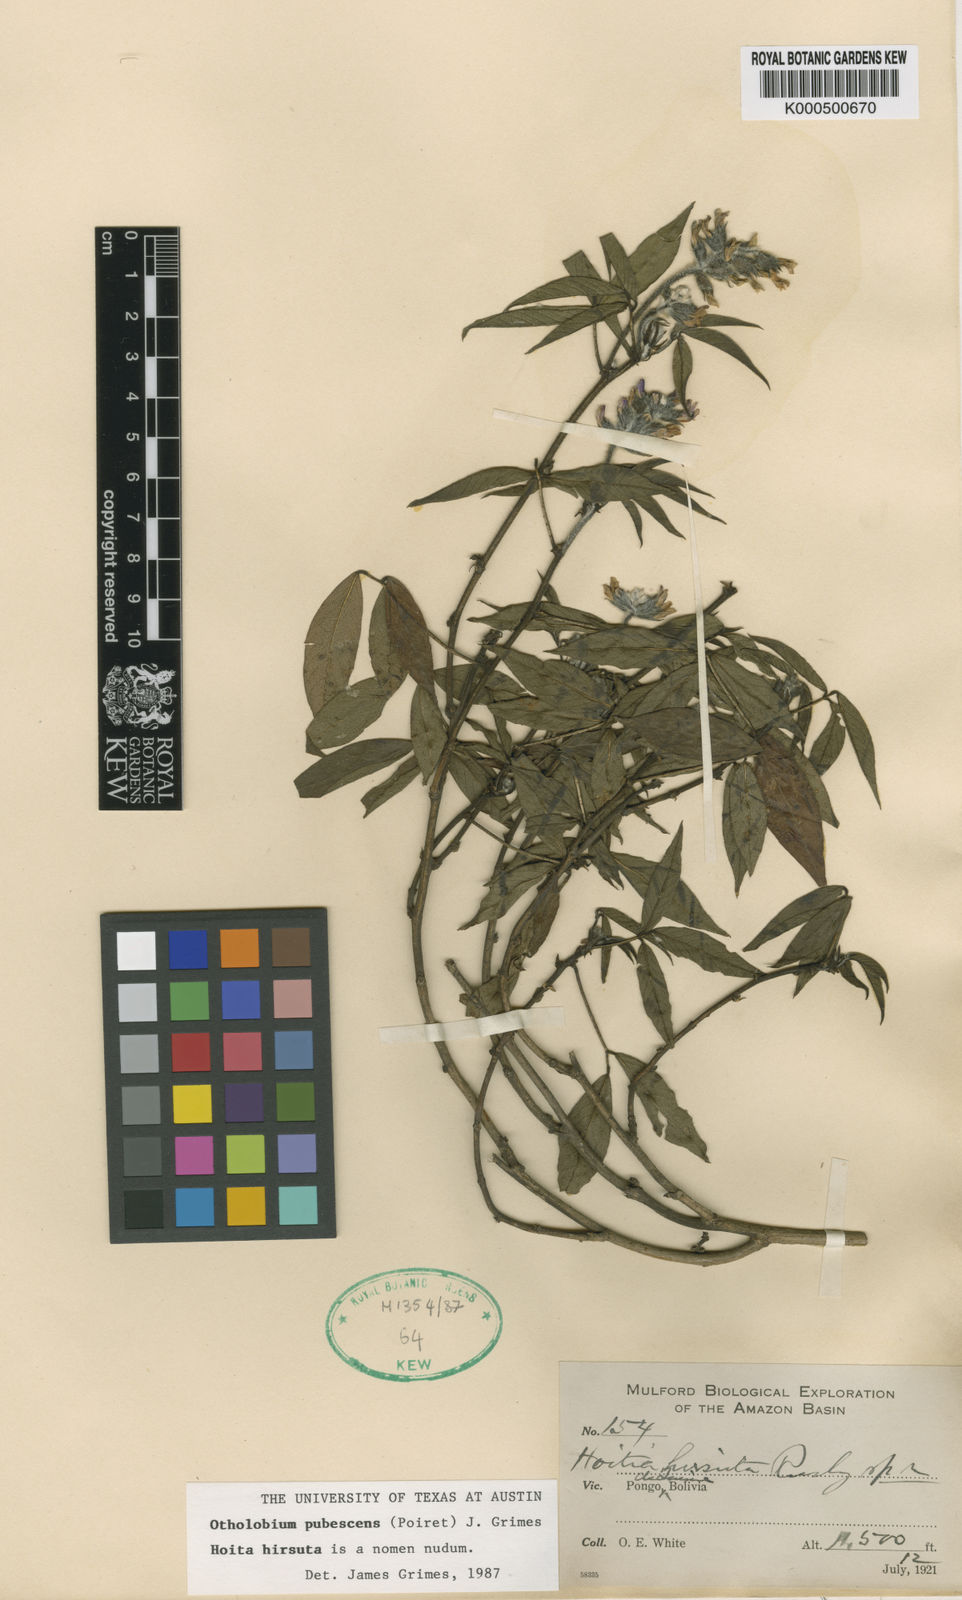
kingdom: Plantae
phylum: Tracheophyta
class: Magnoliopsida
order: Fabales
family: Fabaceae
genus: Psoralea
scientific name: Psoralea Otholobium pubescens
